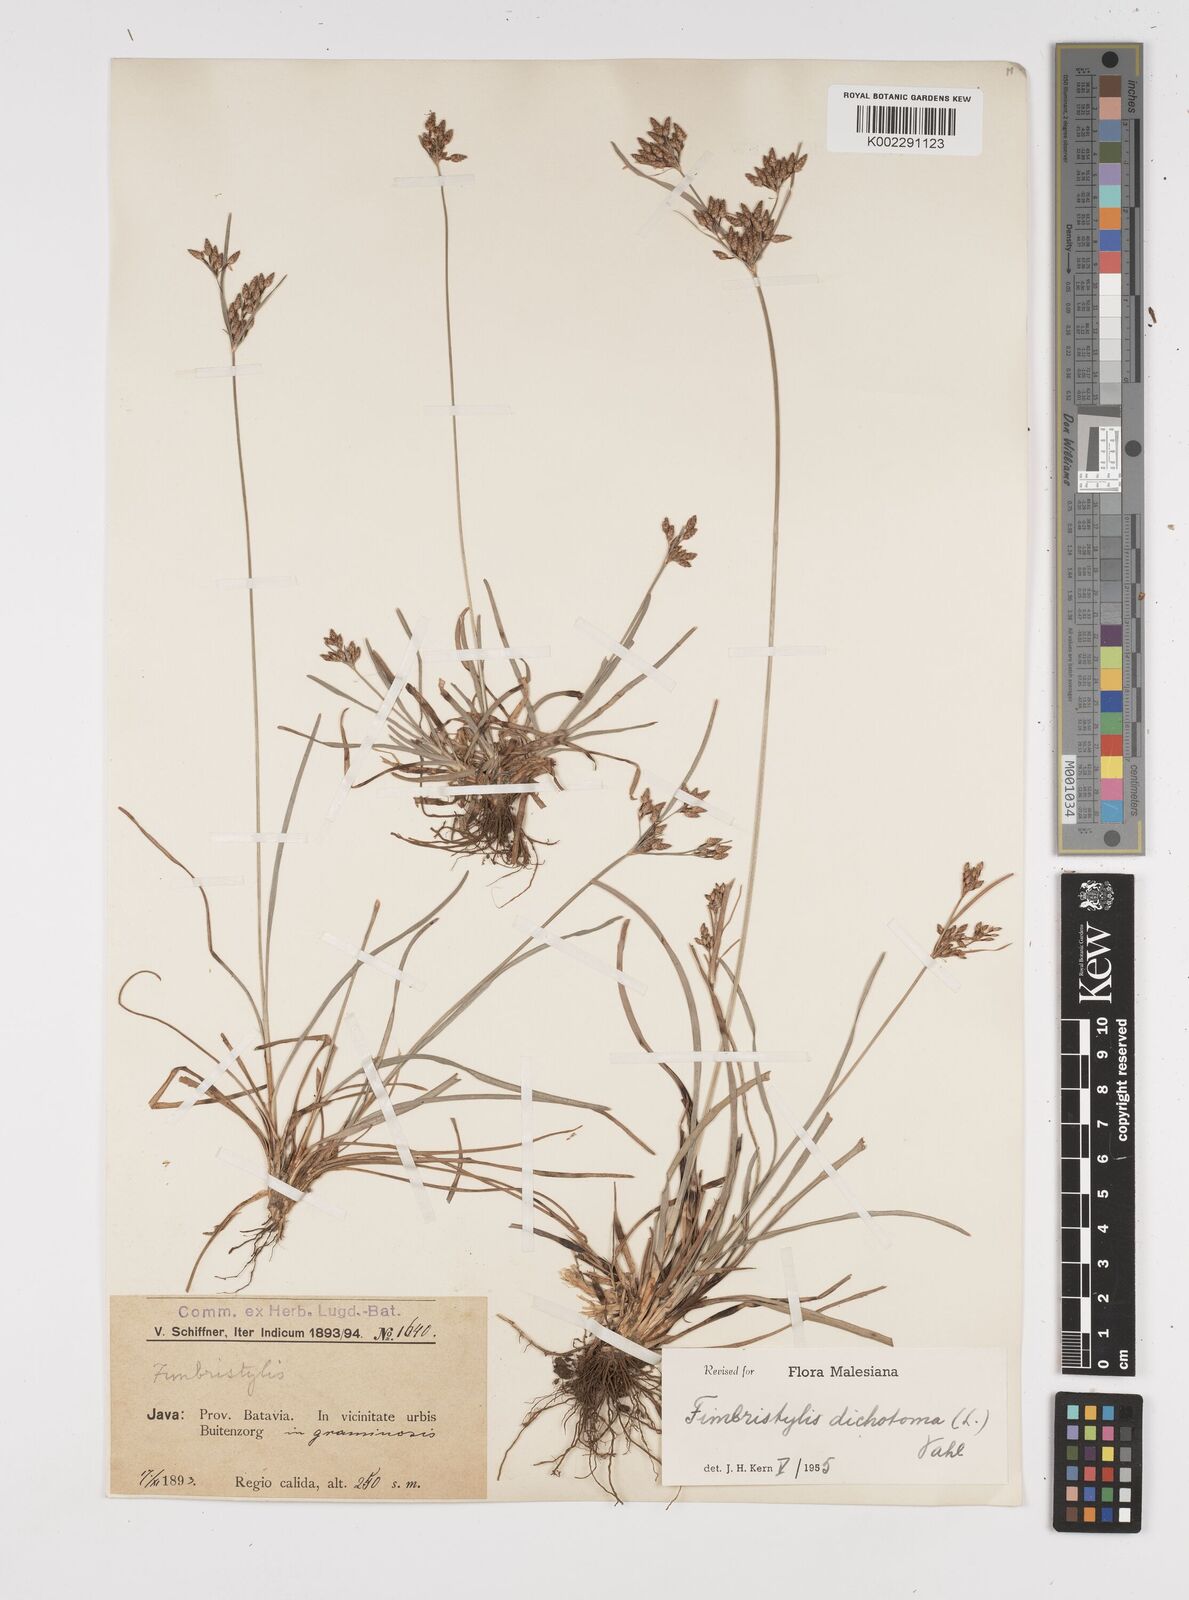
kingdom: Plantae
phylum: Tracheophyta
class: Liliopsida
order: Poales
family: Cyperaceae
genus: Fimbristylis
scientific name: Fimbristylis dichotoma
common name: Forked fimbry
